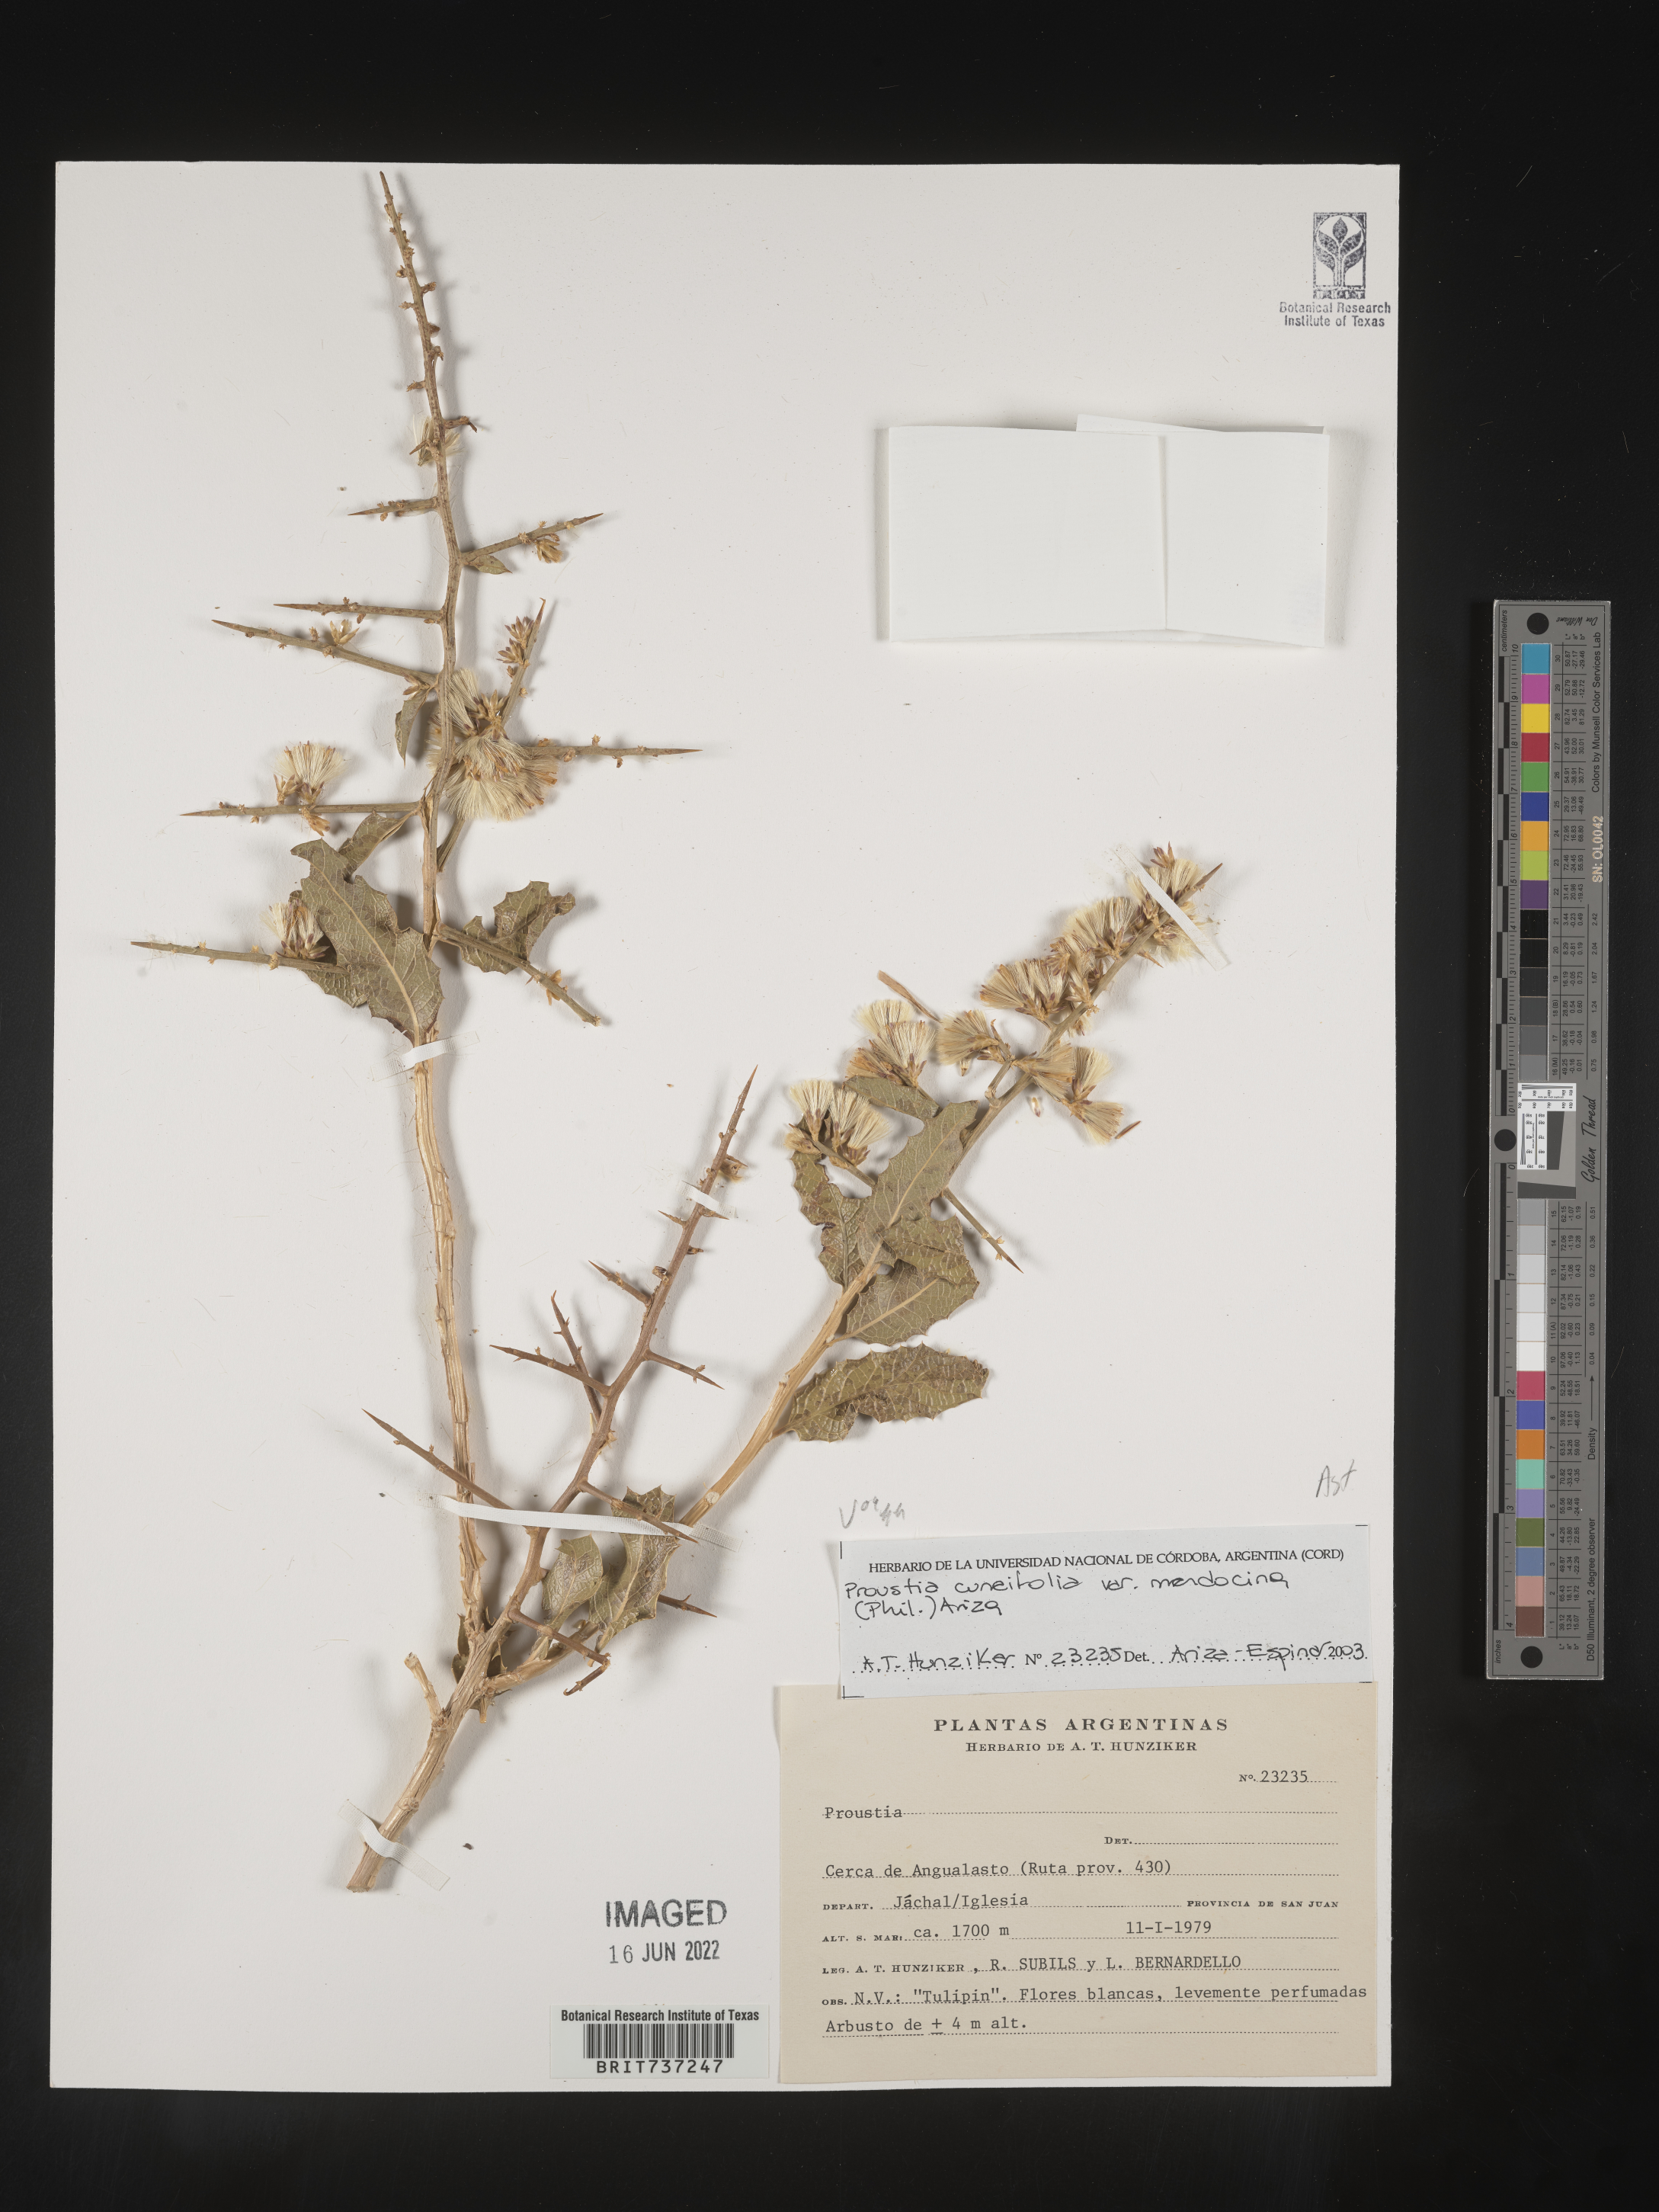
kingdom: Plantae
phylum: Tracheophyta
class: Magnoliopsida
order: Asterales
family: Asteraceae
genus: Proustia
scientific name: Proustia
